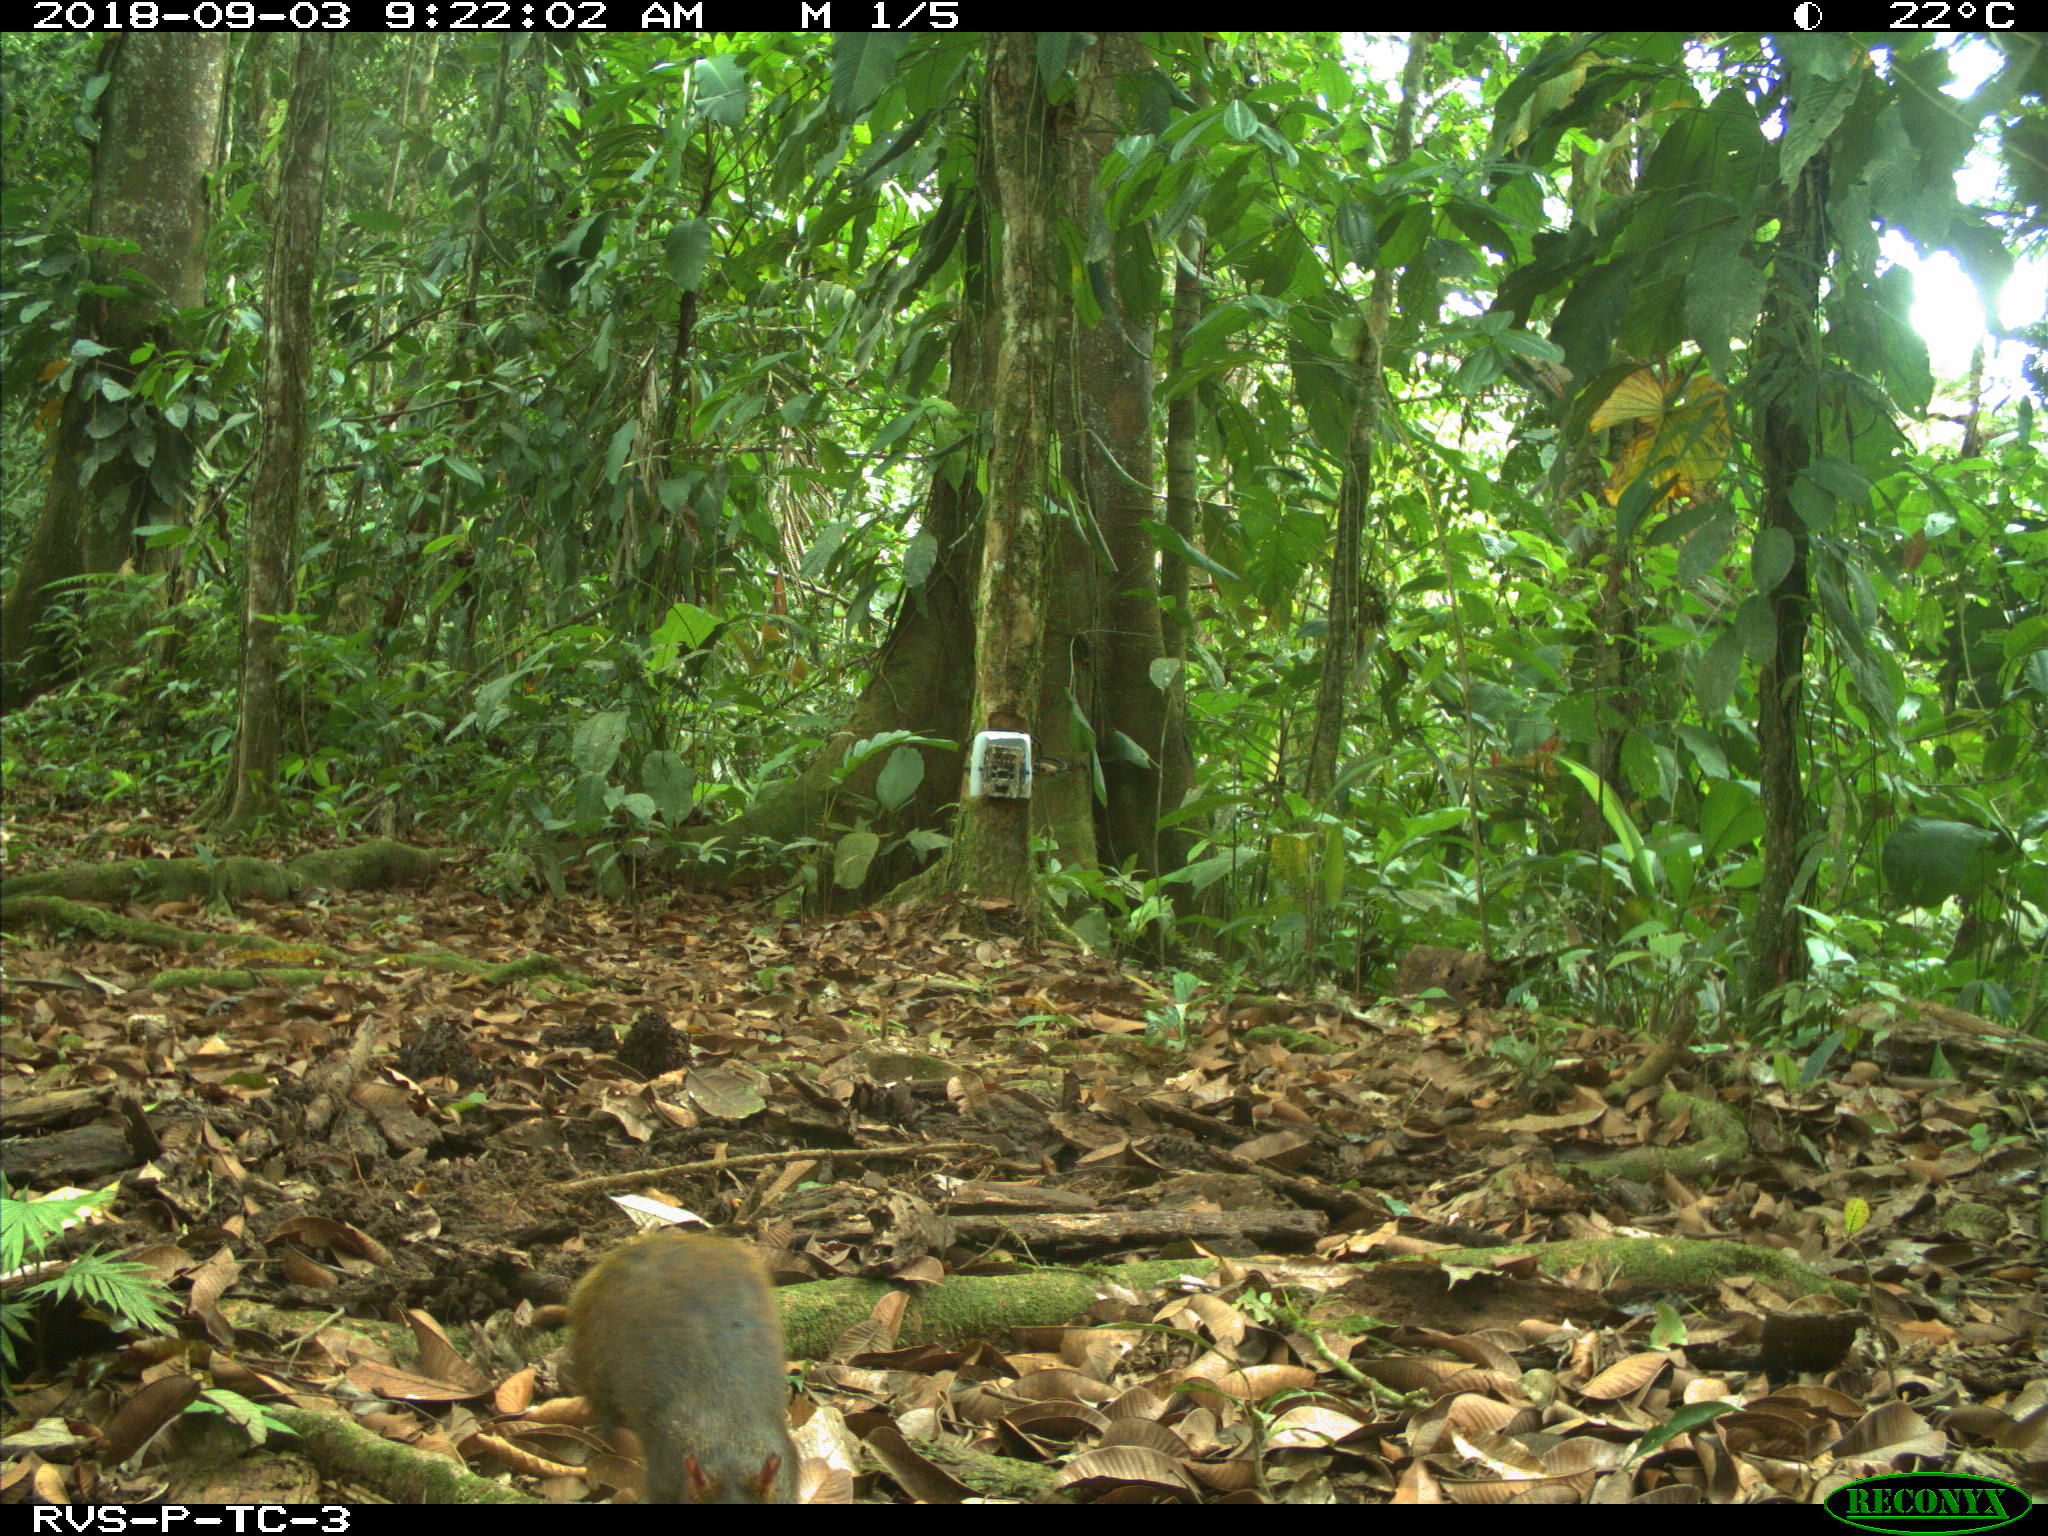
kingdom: Animalia
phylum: Chordata
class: Mammalia
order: Rodentia
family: Dasyproctidae
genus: Dasyprocta
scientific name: Dasyprocta punctata
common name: Central american agouti
